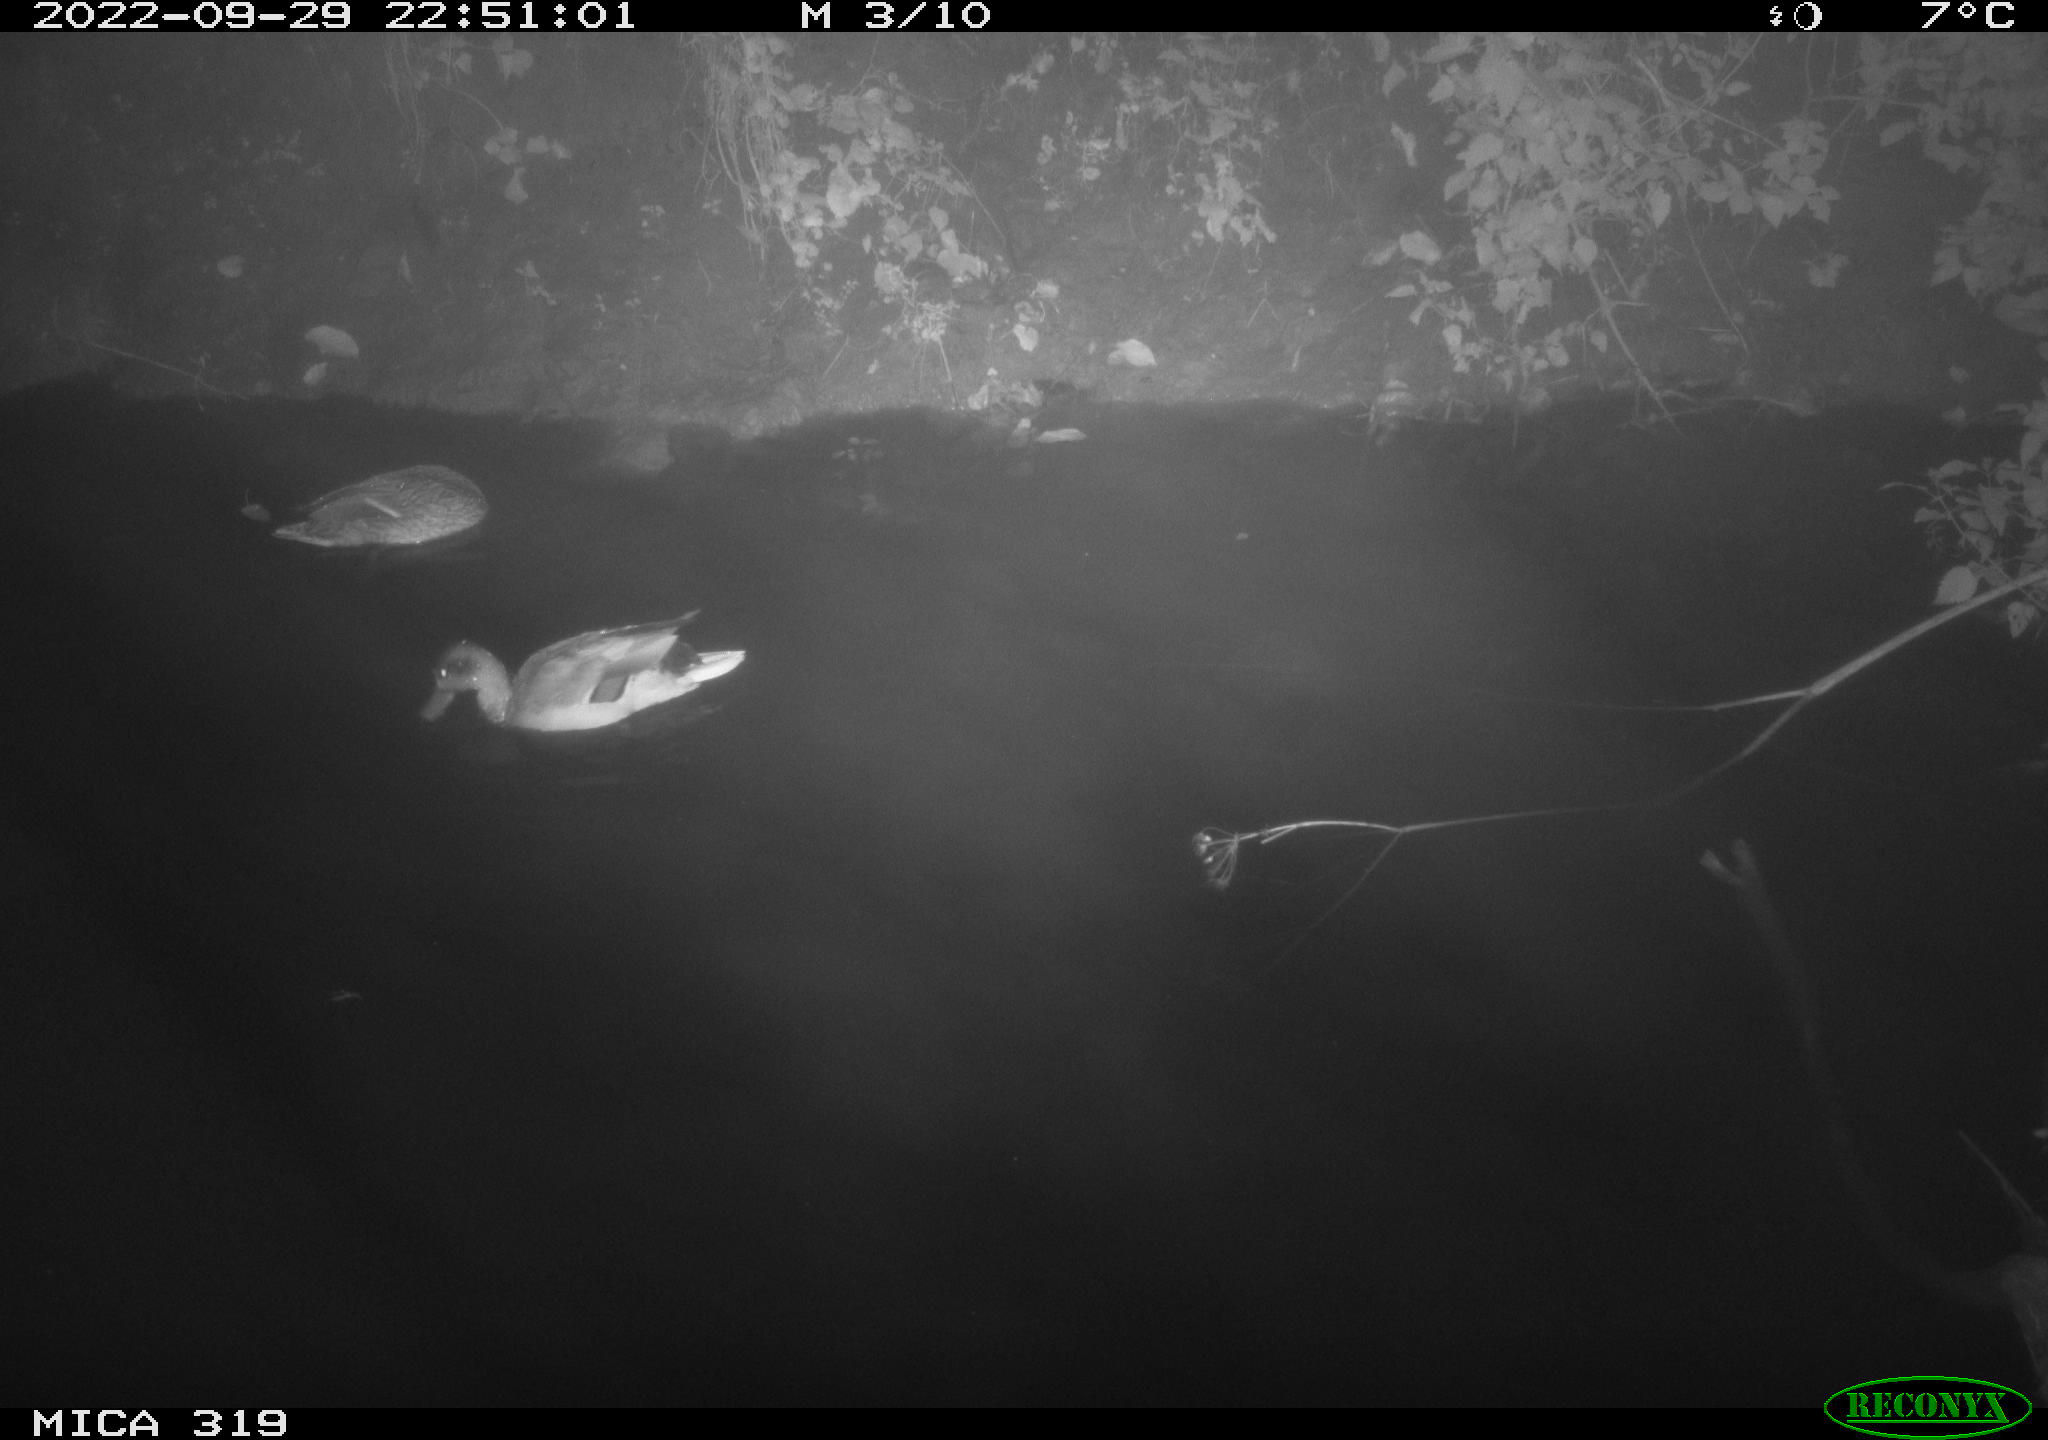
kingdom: Animalia
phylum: Chordata
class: Aves
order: Anseriformes
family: Anatidae
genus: Anas
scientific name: Anas
